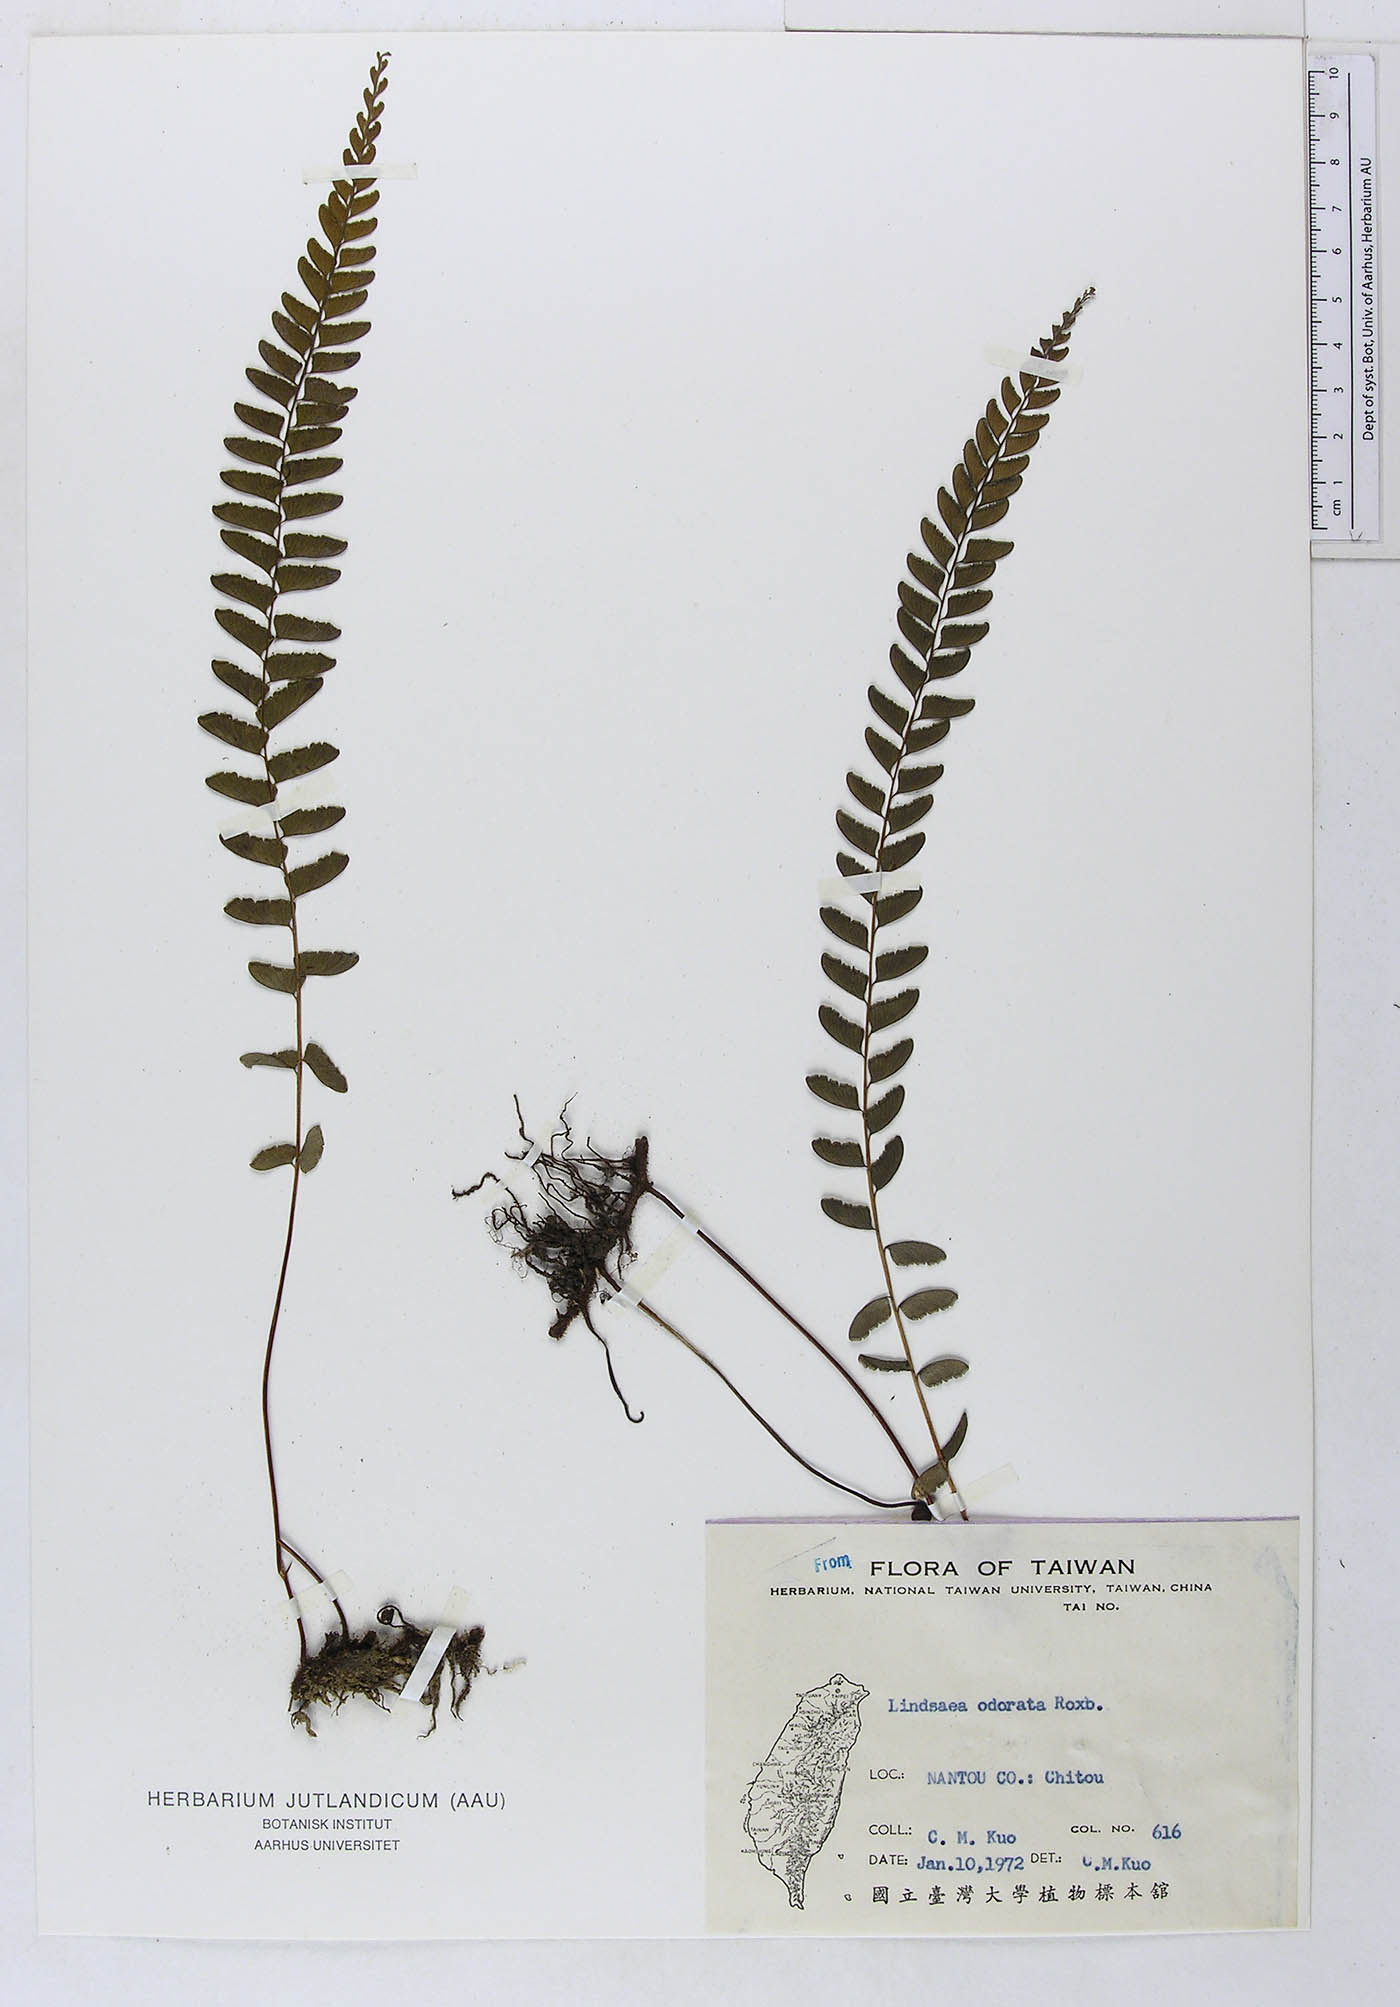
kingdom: Plantae
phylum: Tracheophyta
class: Polypodiopsida
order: Polypodiales
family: Lindsaeaceae
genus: Osmolindsaea
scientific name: Osmolindsaea odorata
